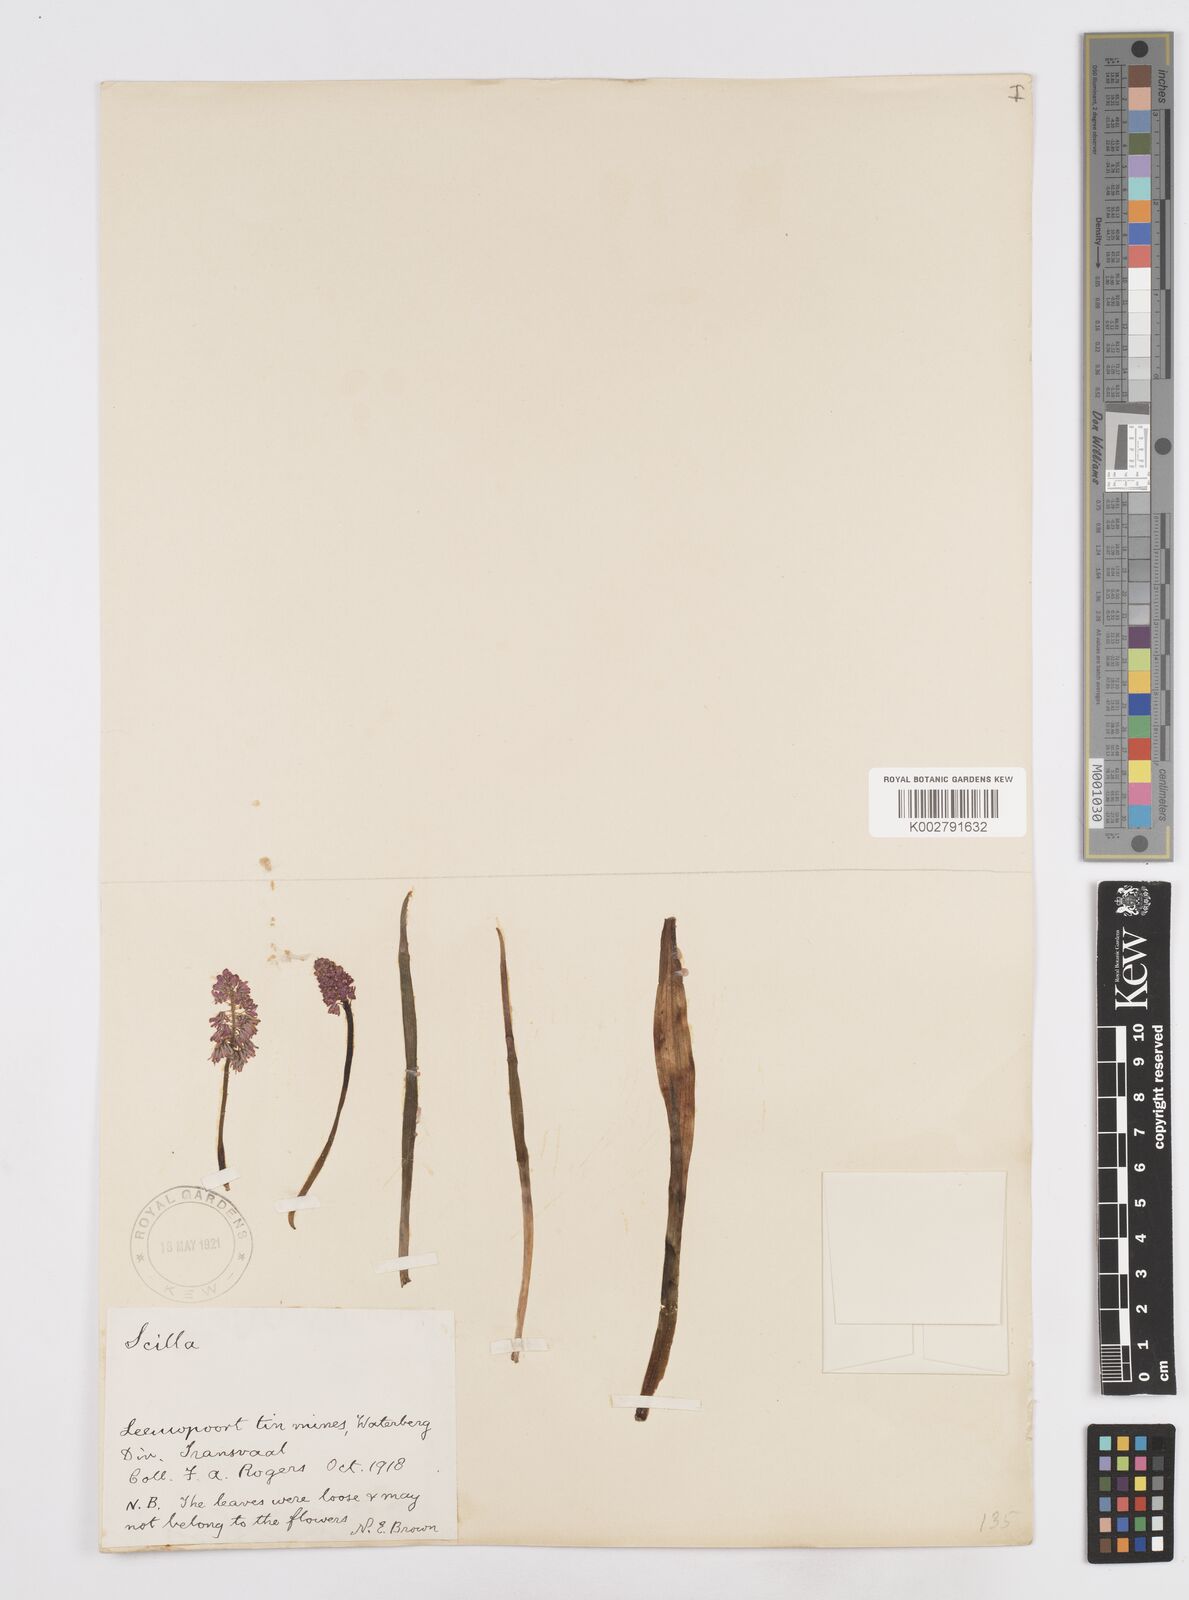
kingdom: Plantae
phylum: Tracheophyta
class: Liliopsida
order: Asparagales
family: Asparagaceae
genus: Scilla
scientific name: Scilla
